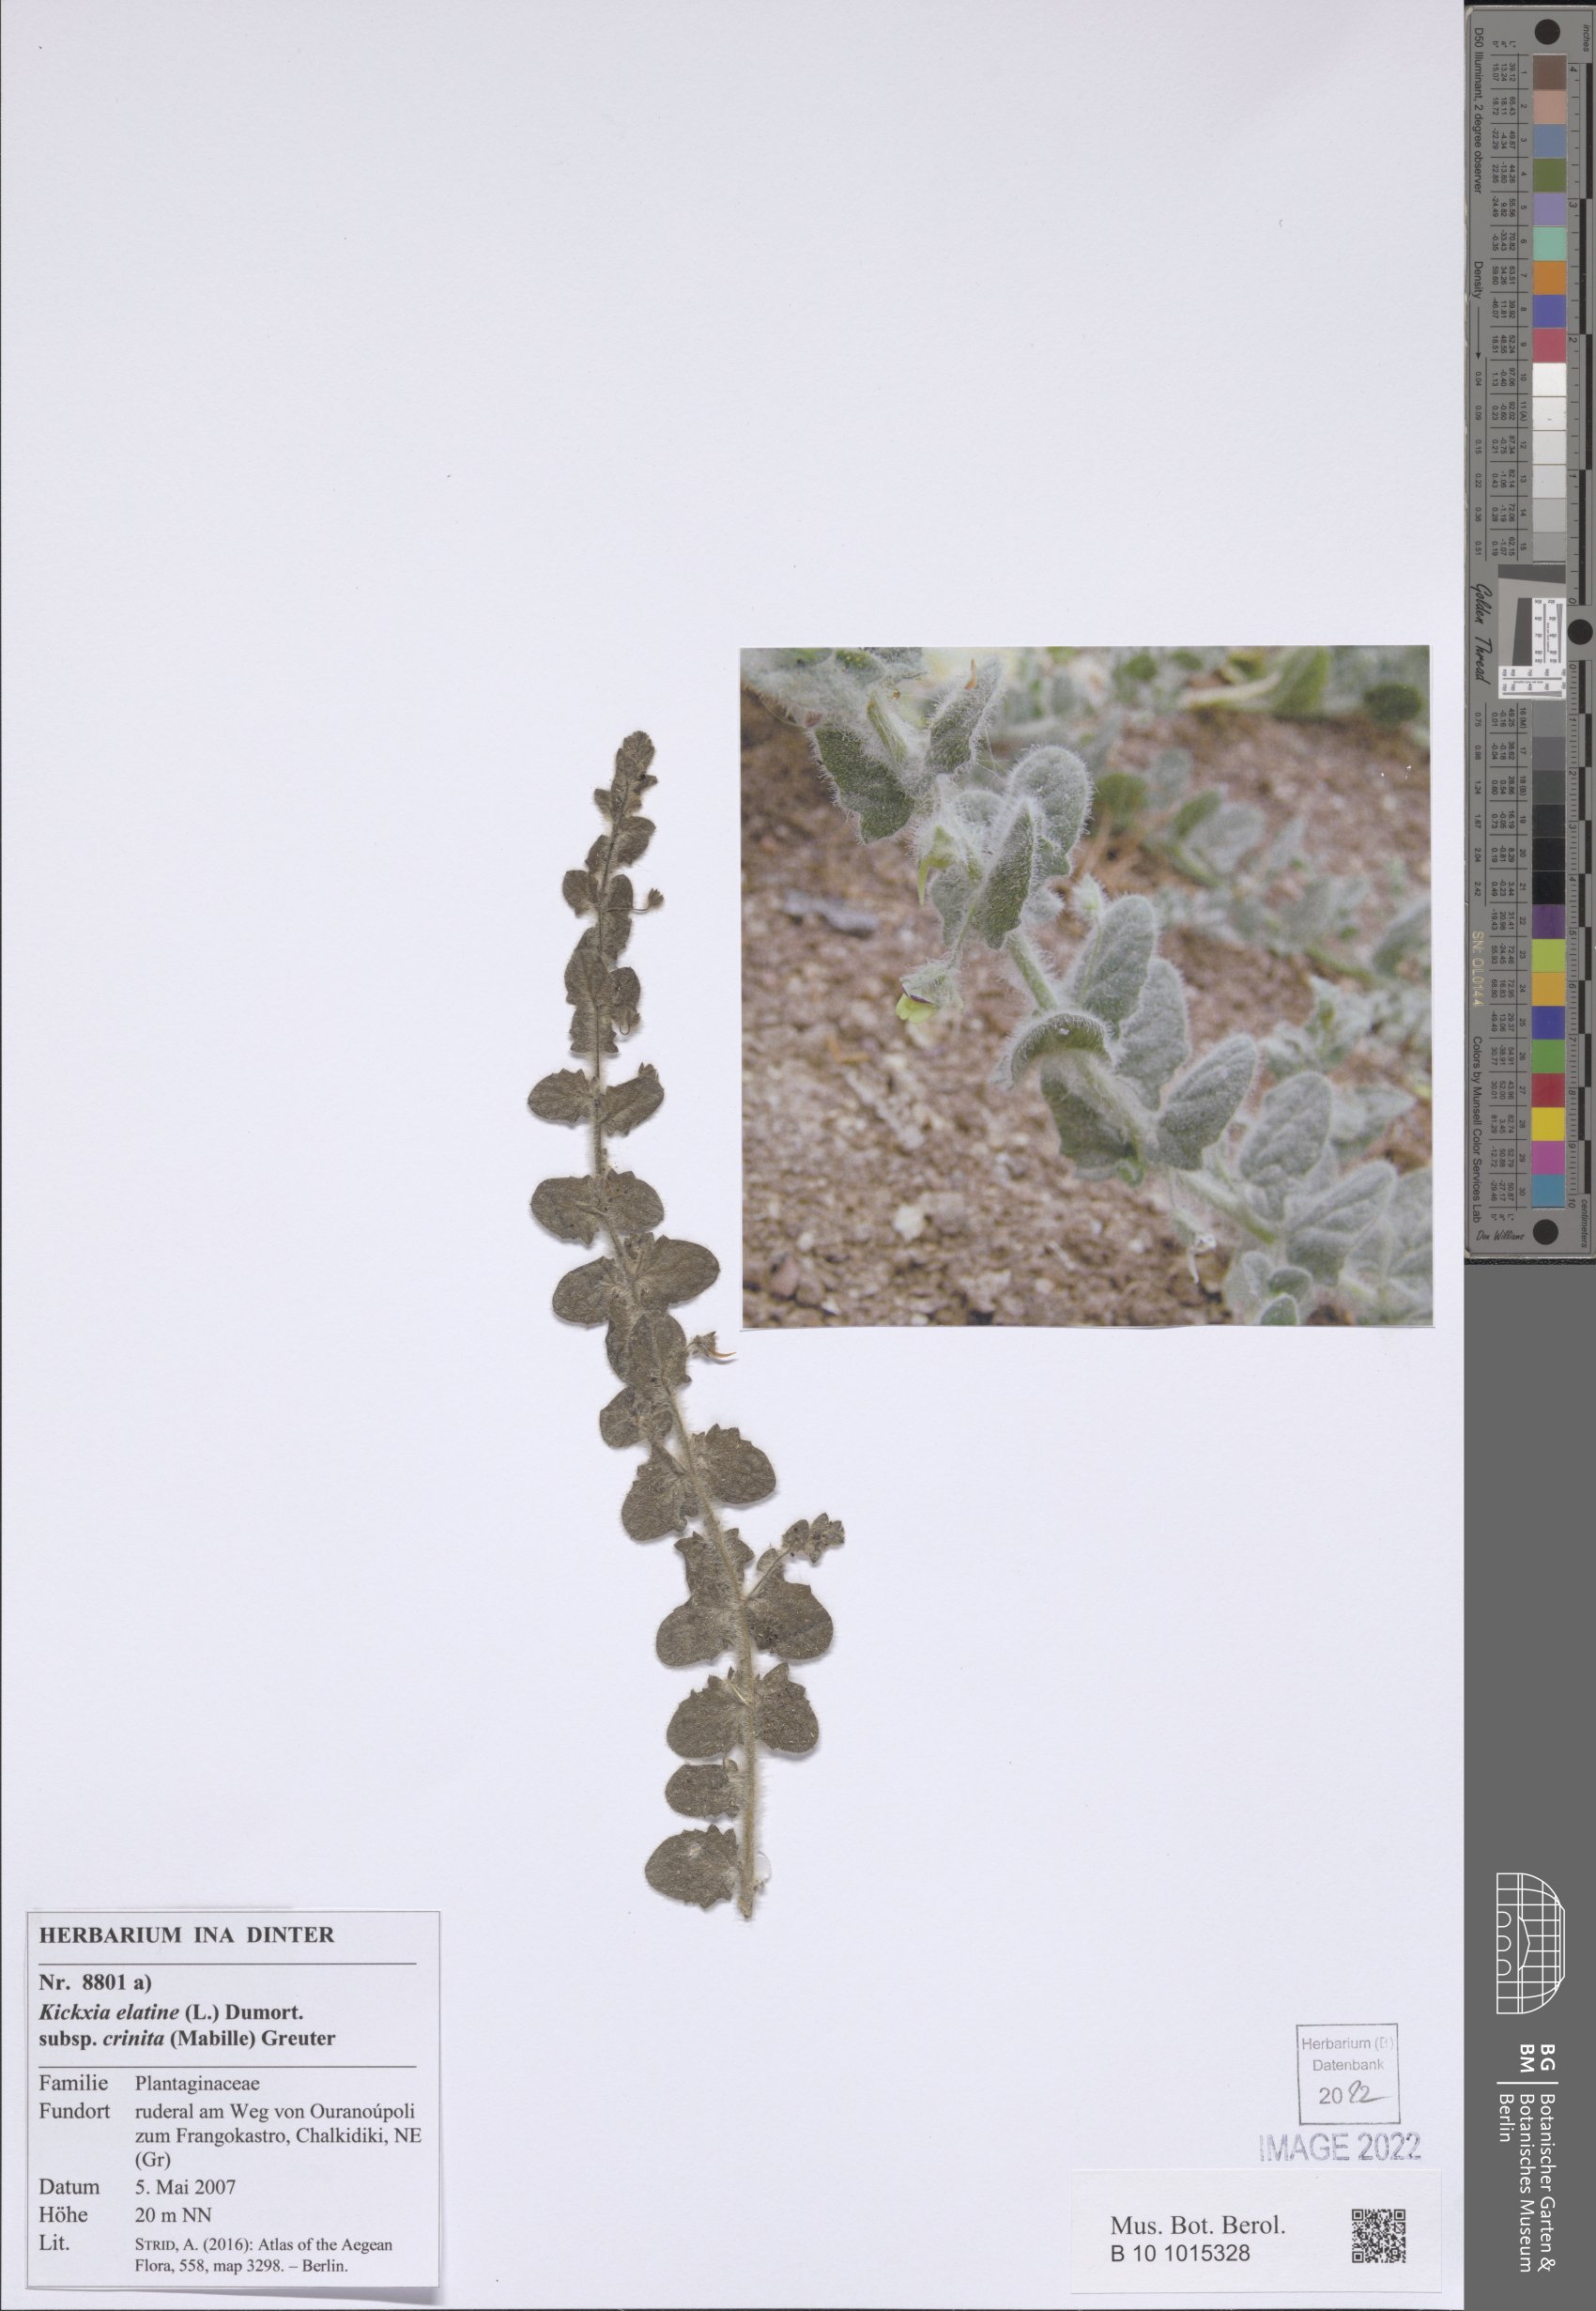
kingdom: Plantae
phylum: Tracheophyta
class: Magnoliopsida
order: Lamiales
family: Plantaginaceae
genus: Kickxia
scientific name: Kickxia elatine
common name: Sharp-leaved fluellen
